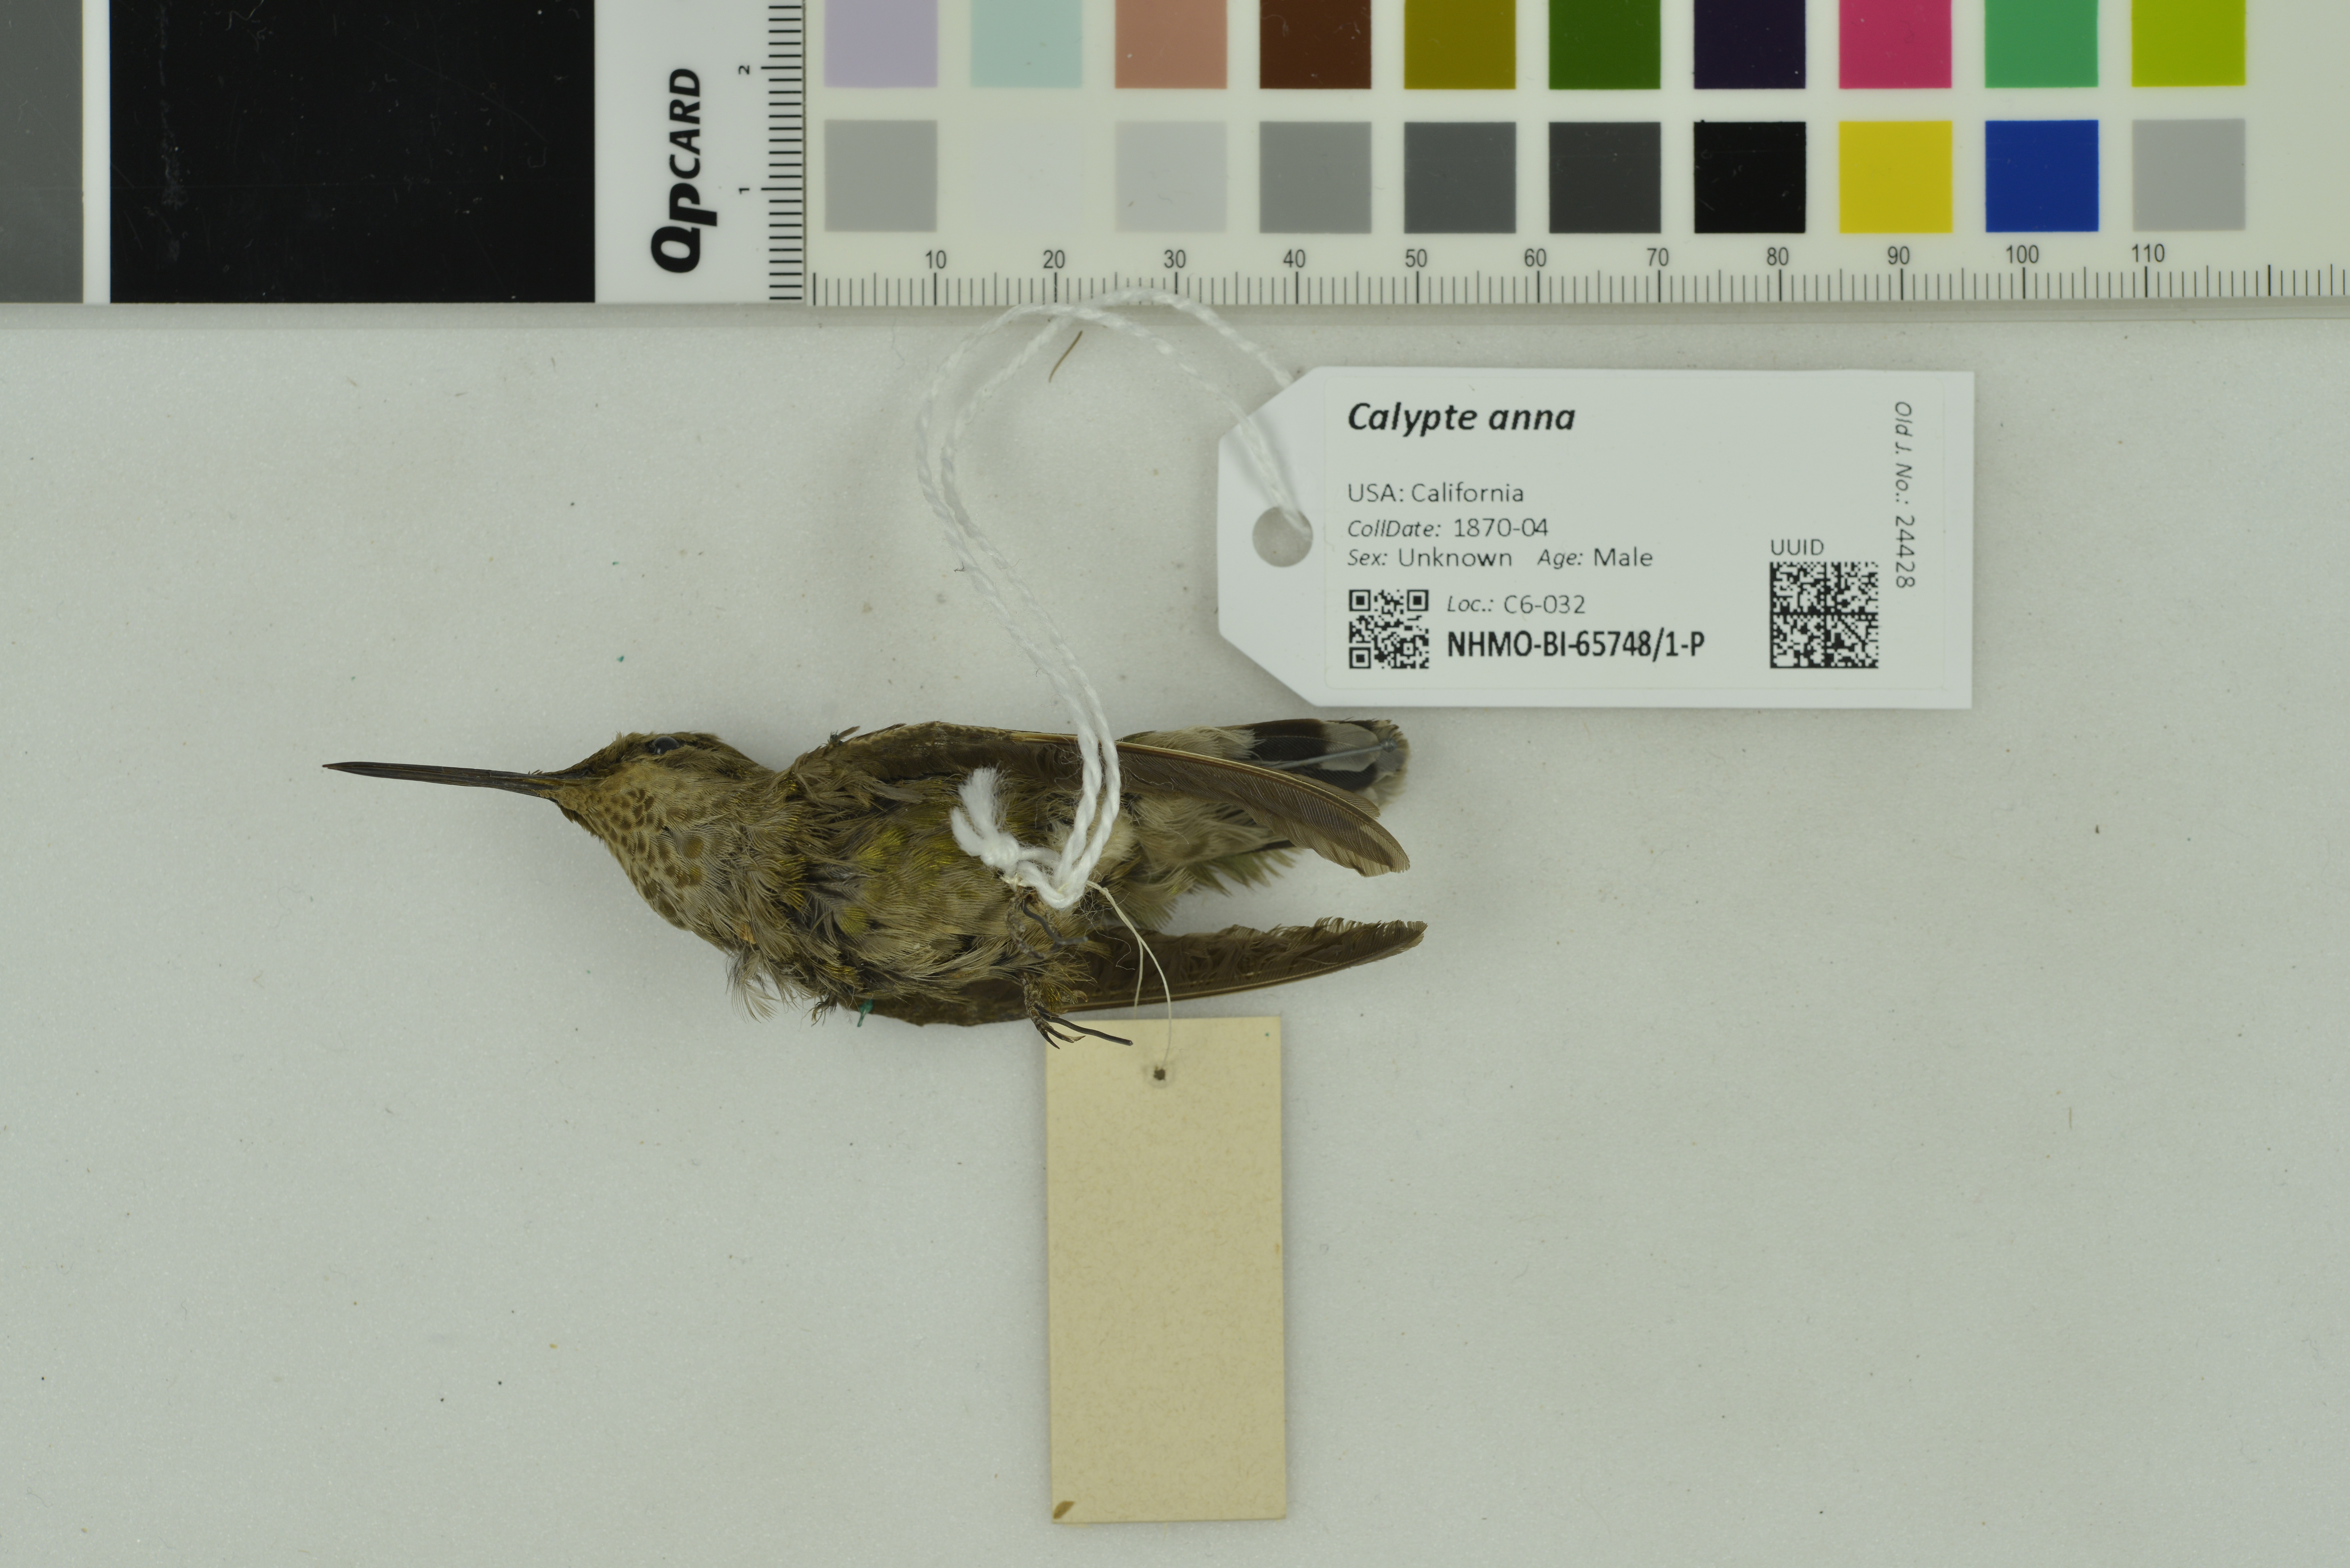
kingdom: Animalia
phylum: Chordata
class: Aves
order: Apodiformes
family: Trochilidae
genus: Calypte
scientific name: Calypte anna
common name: Anna's hummingbird
